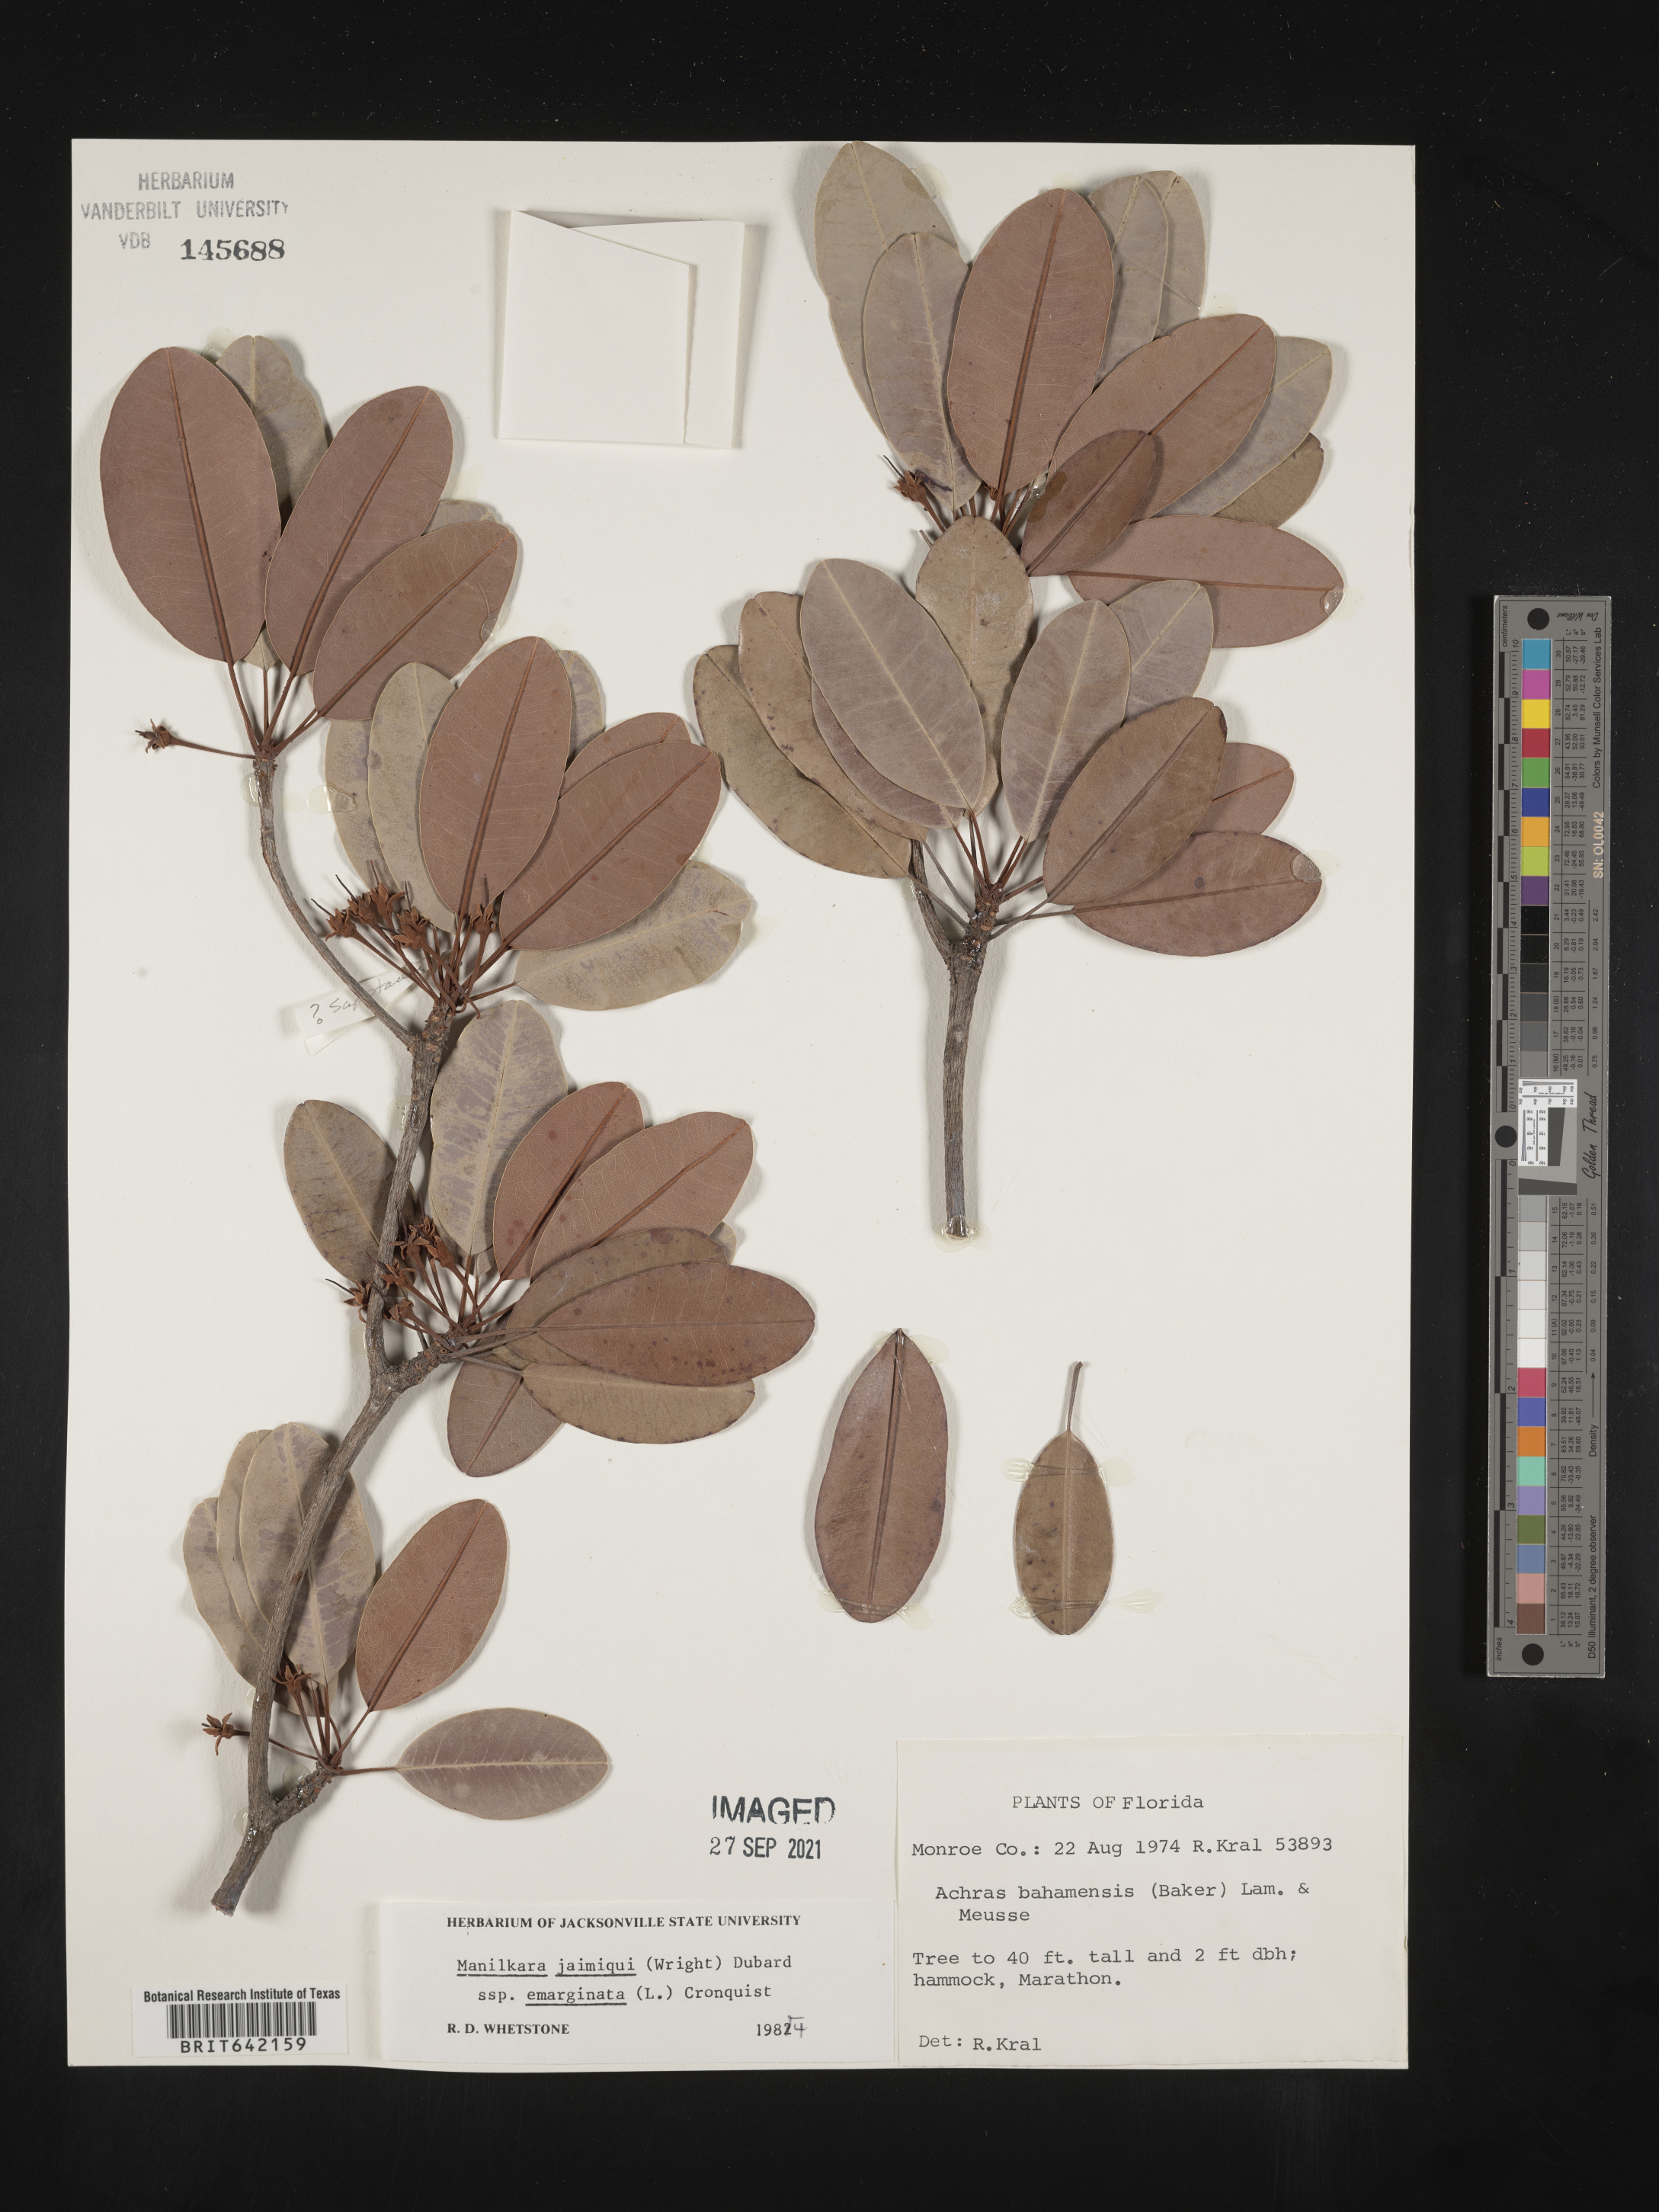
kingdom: Plantae
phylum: Tracheophyta
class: Magnoliopsida
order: Ericales
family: Sapotaceae
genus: Manilkara
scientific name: Manilkara jaimiqui
